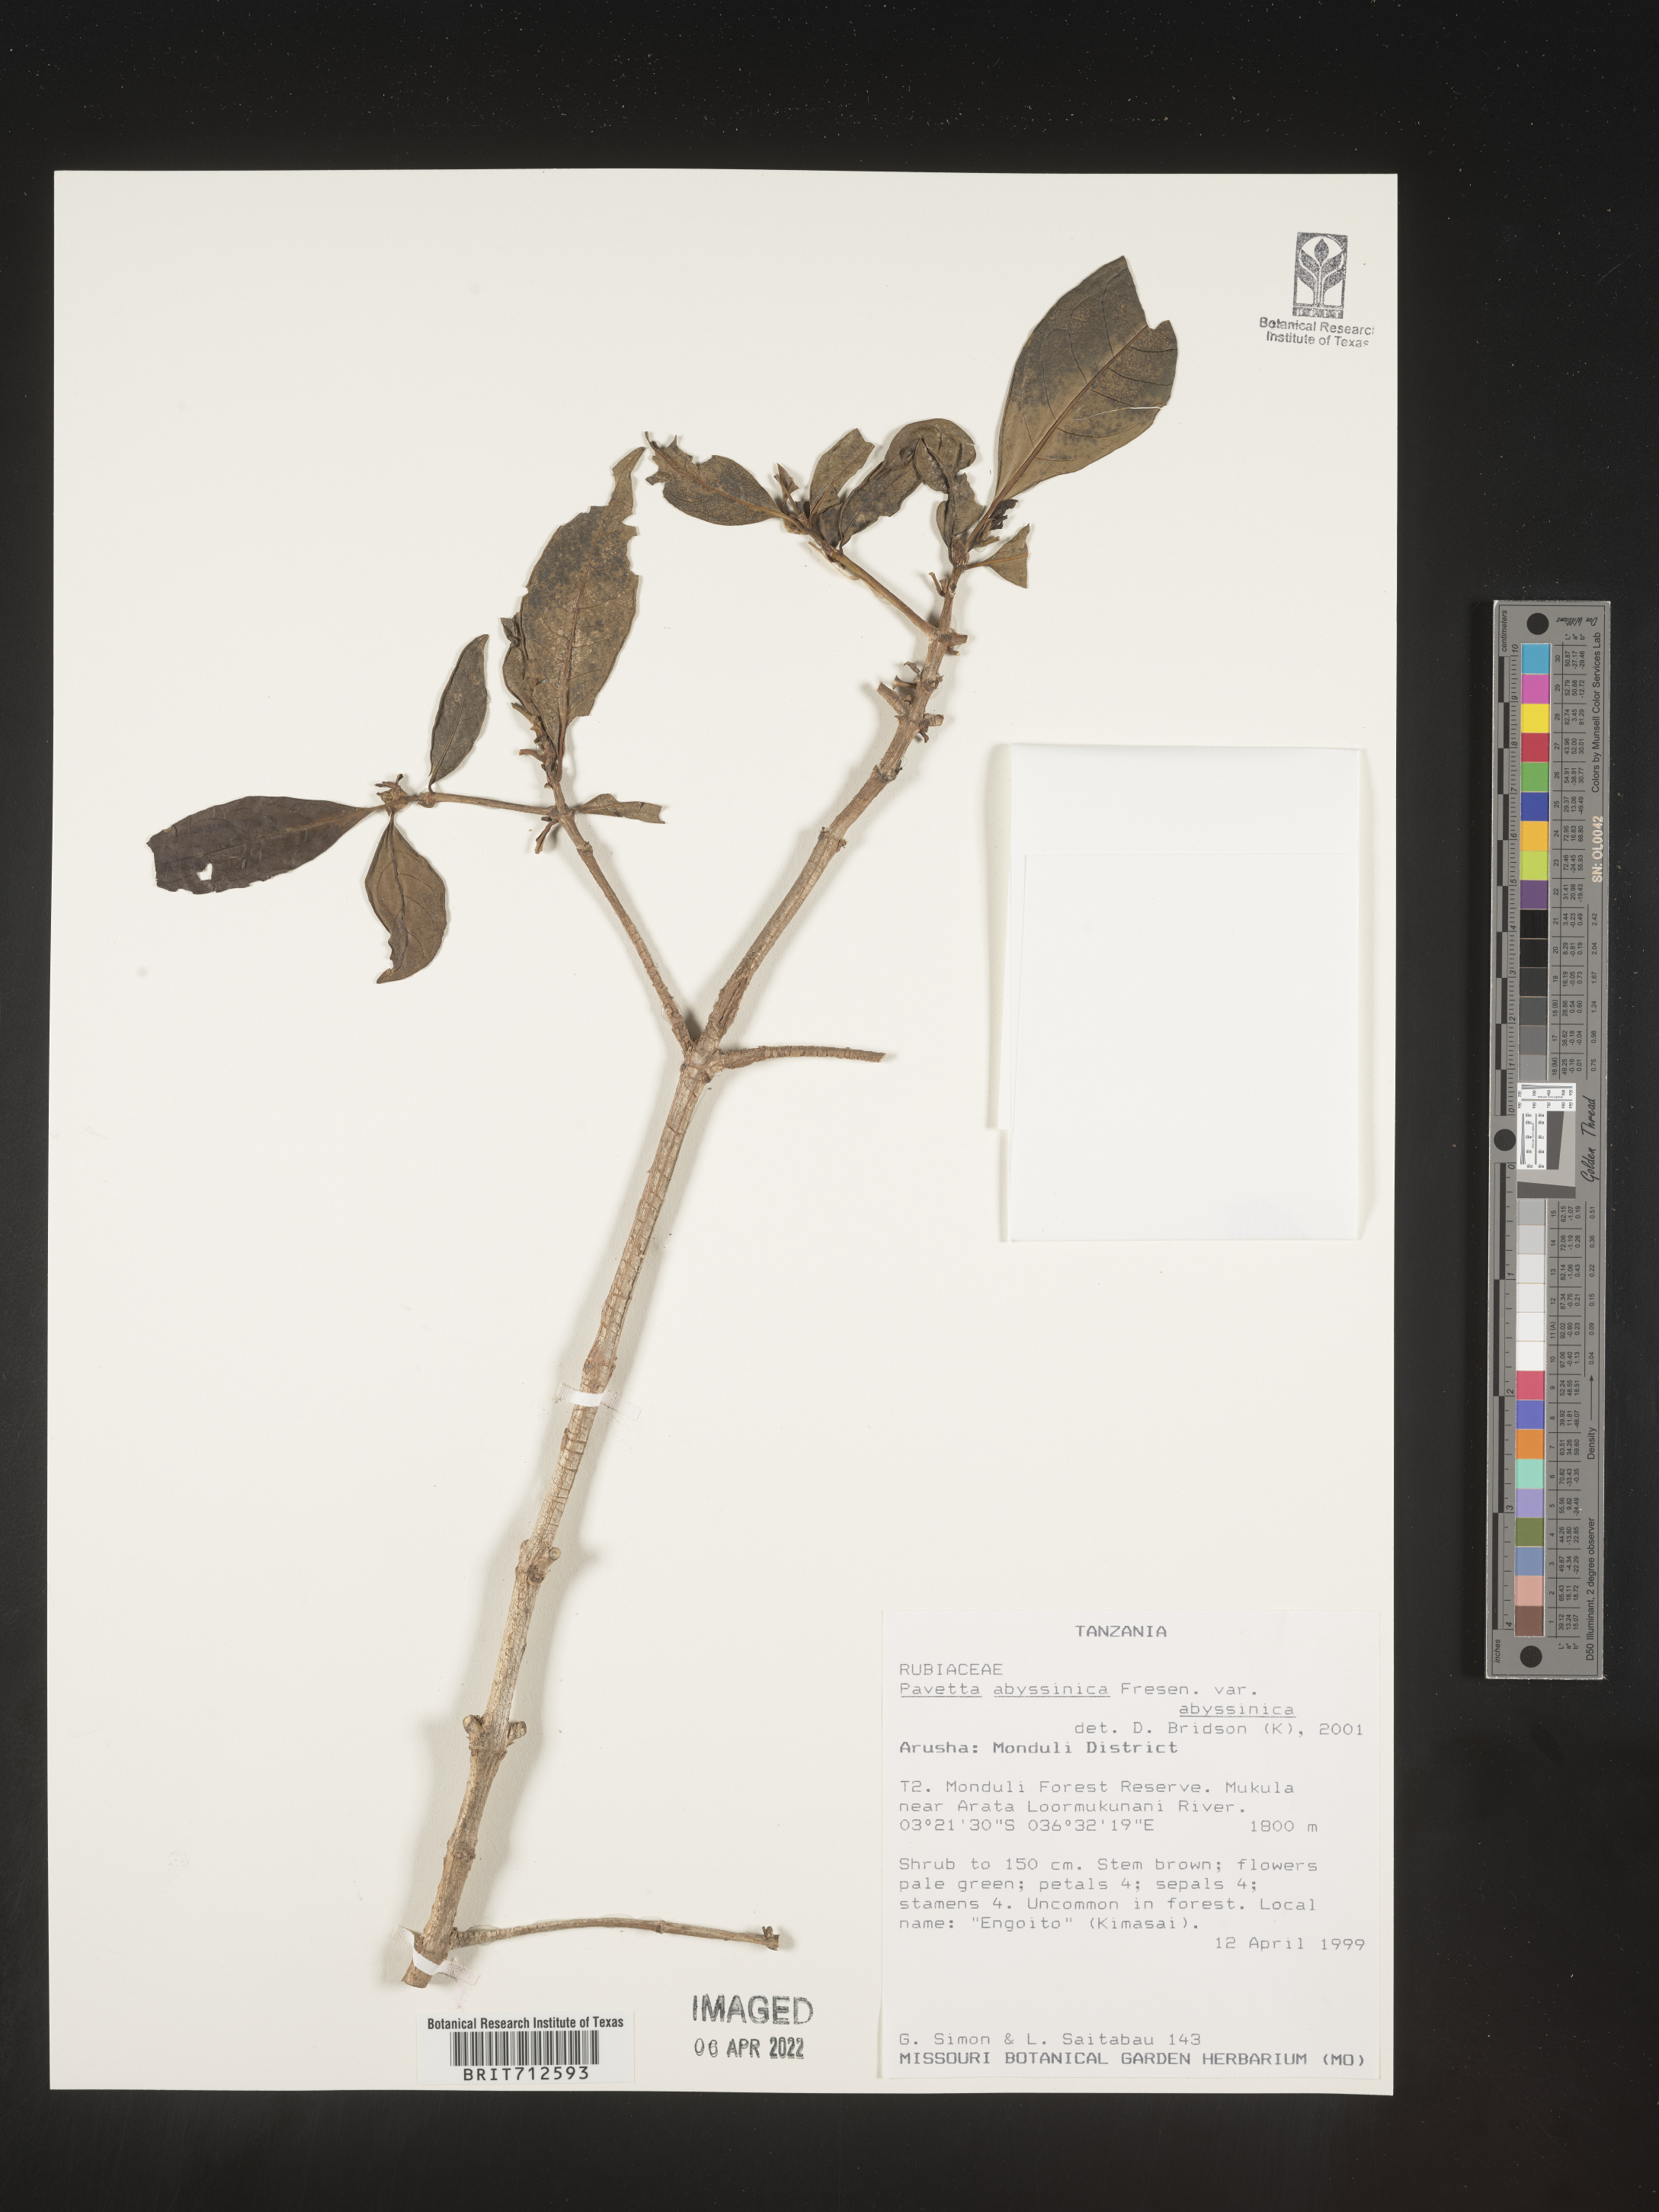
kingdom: Plantae
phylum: Tracheophyta
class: Magnoliopsida
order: Gentianales
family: Rubiaceae
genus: Pavetta
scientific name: Pavetta
